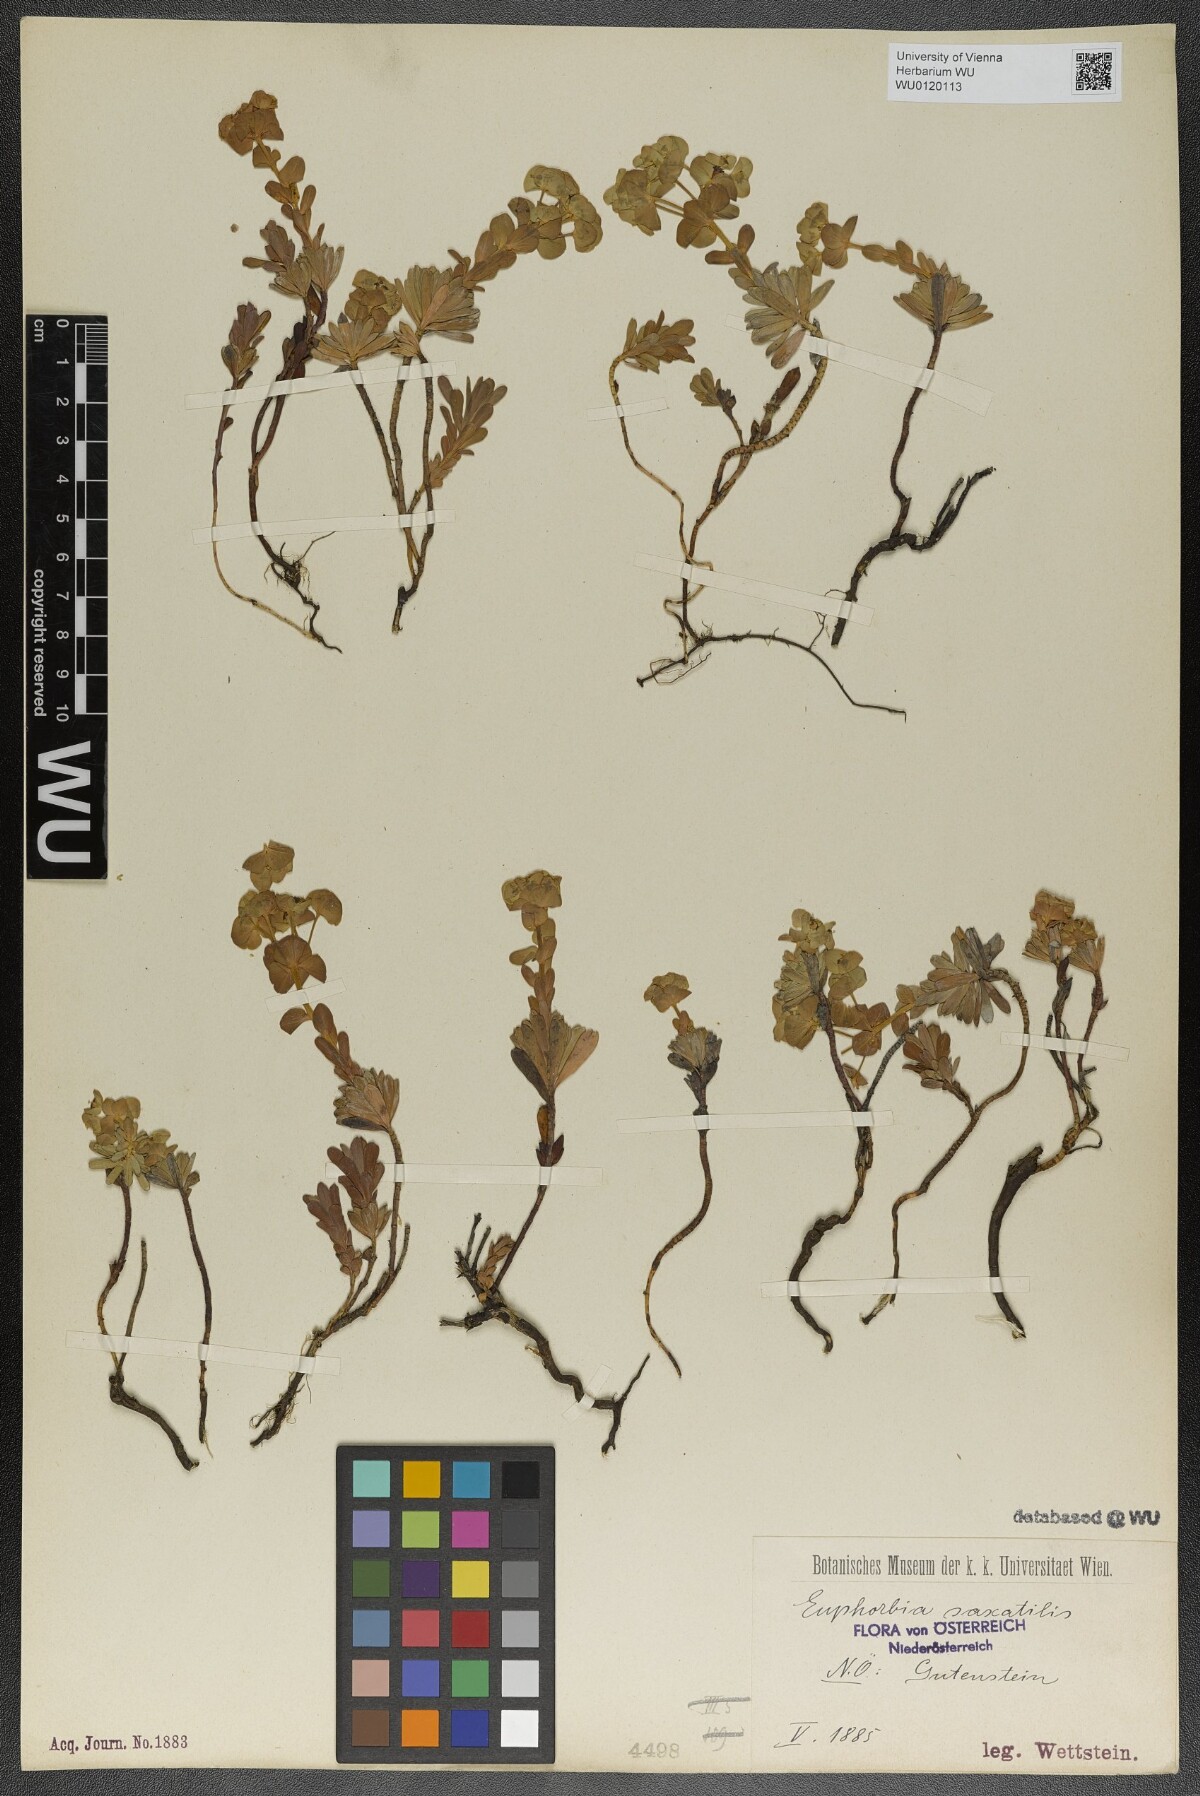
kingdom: Plantae
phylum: Tracheophyta
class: Magnoliopsida
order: Malpighiales
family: Euphorbiaceae
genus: Euphorbia
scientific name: Euphorbia saxatilis
